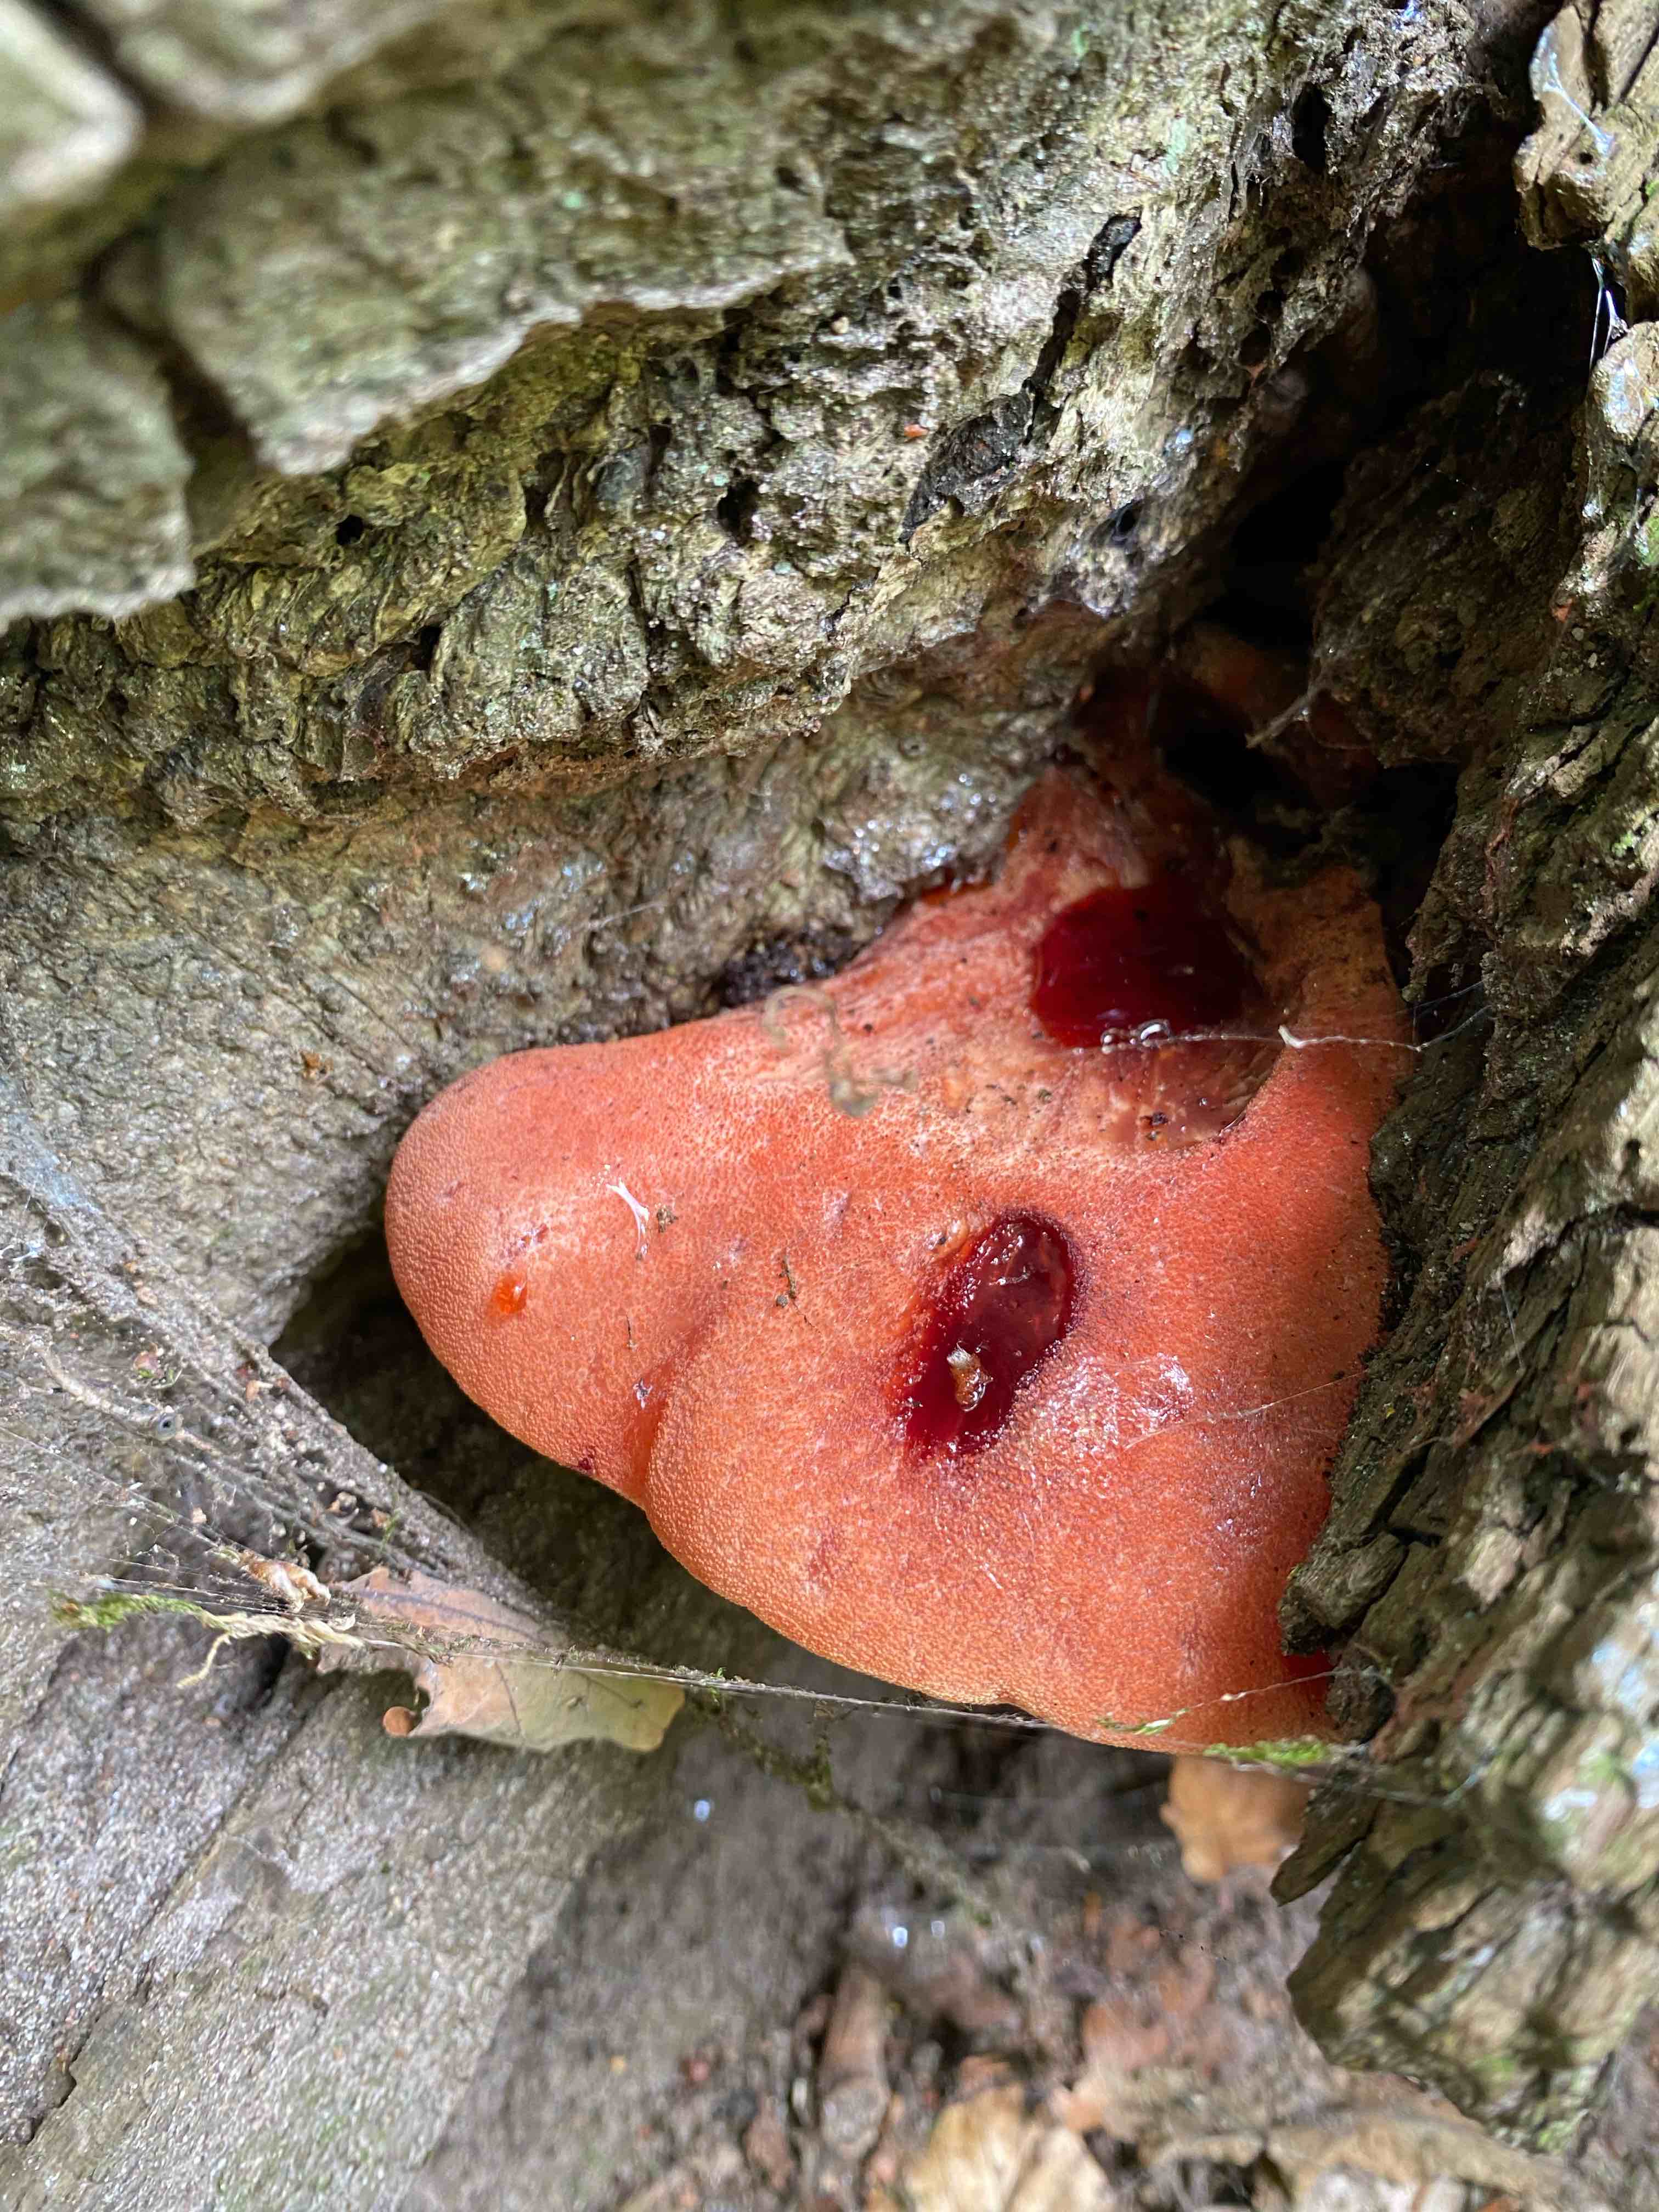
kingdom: Fungi
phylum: Basidiomycota
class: Agaricomycetes
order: Agaricales
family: Fistulinaceae
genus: Fistulina
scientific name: Fistulina hepatica
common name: oksetunge
